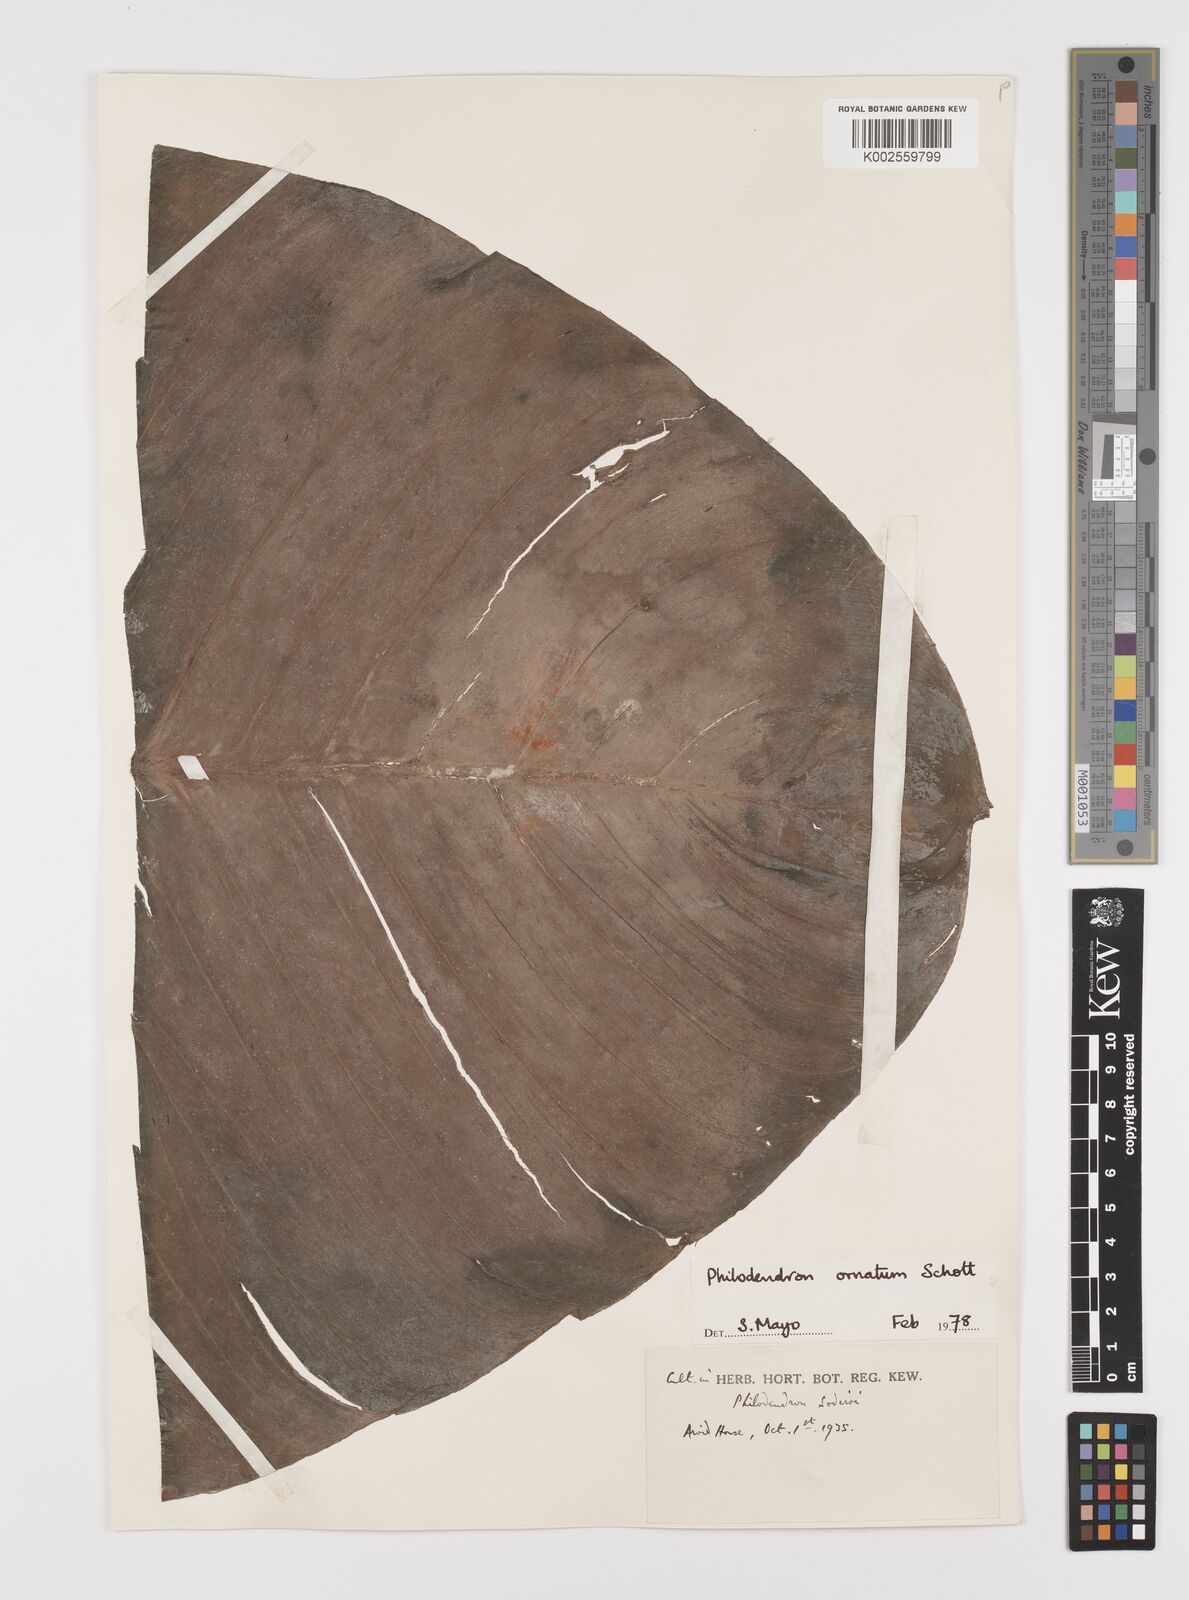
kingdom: Plantae
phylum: Tracheophyta
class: Liliopsida
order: Alismatales
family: Araceae
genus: Philodendron
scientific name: Philodendron ornatum
